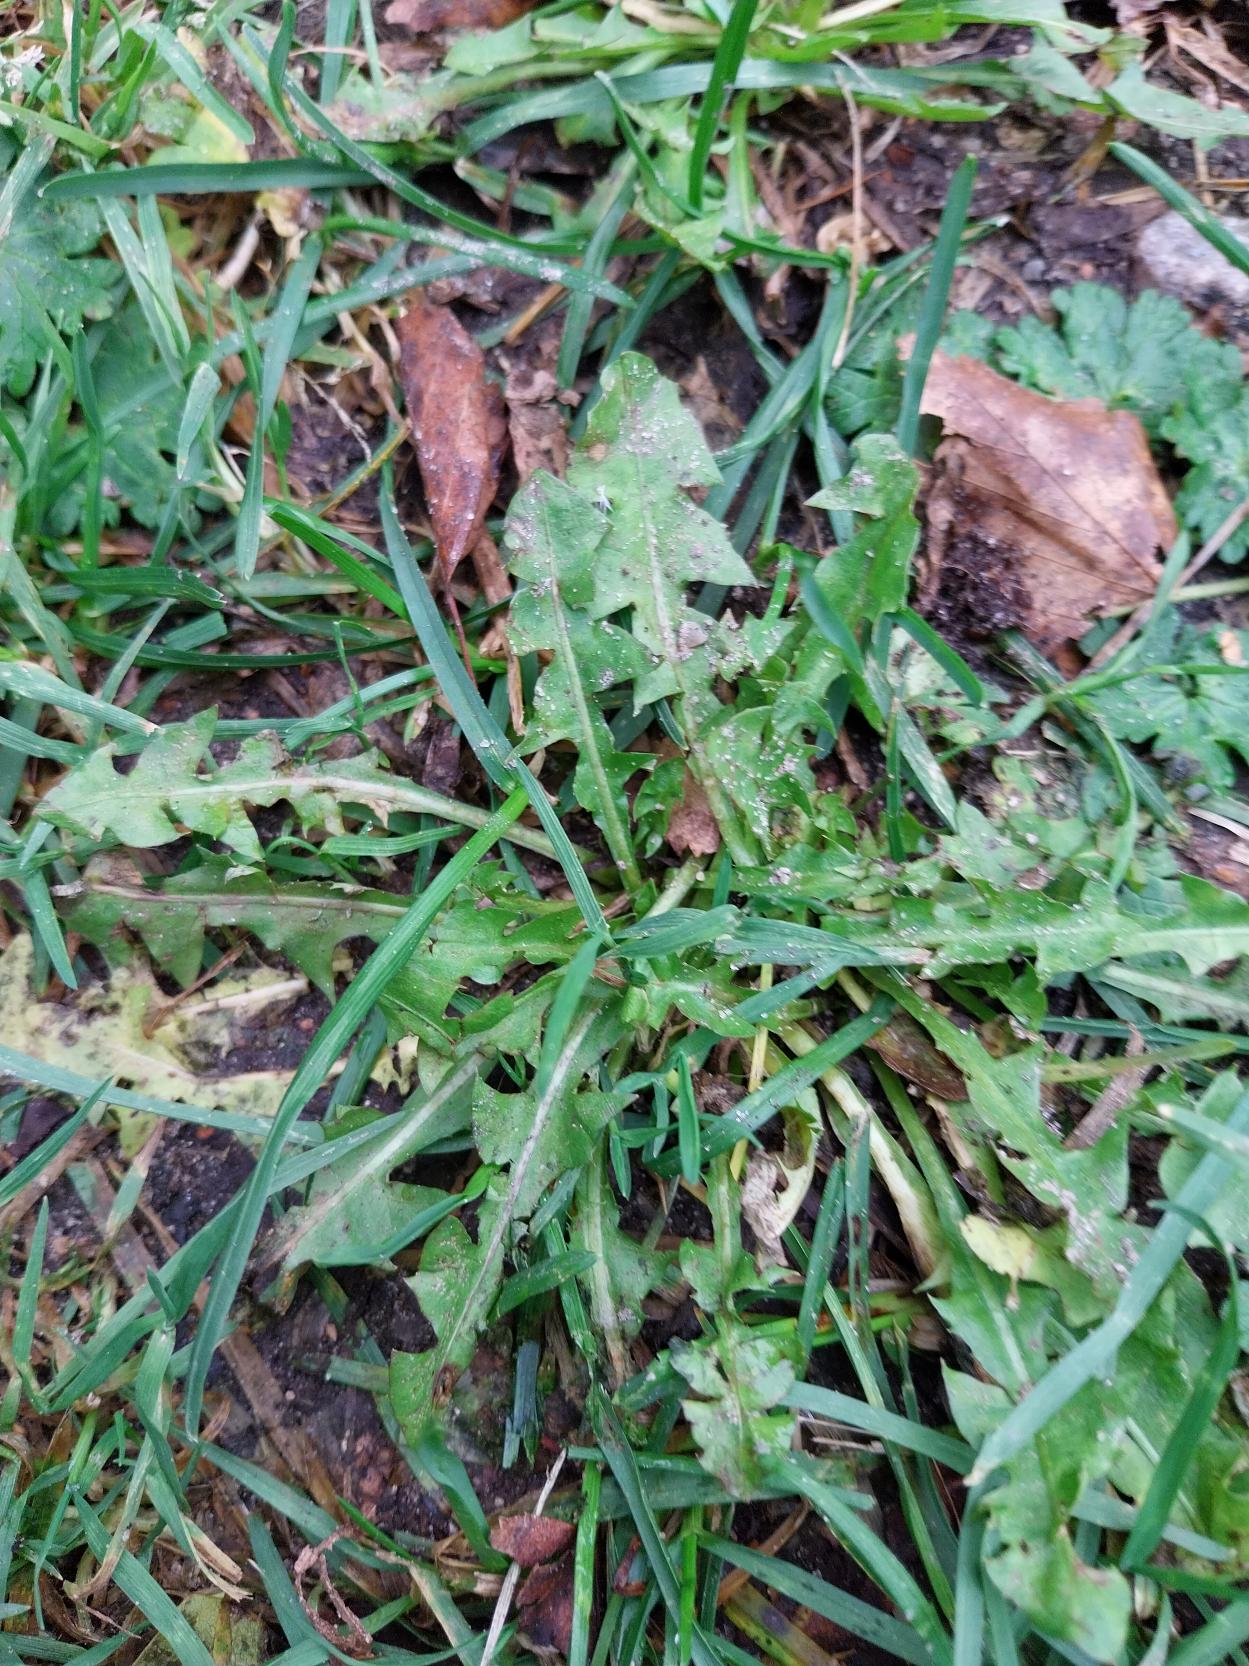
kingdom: Plantae
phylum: Tracheophyta
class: Magnoliopsida
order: Asterales
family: Asteraceae
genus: Taraxacum
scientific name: Taraxacum
